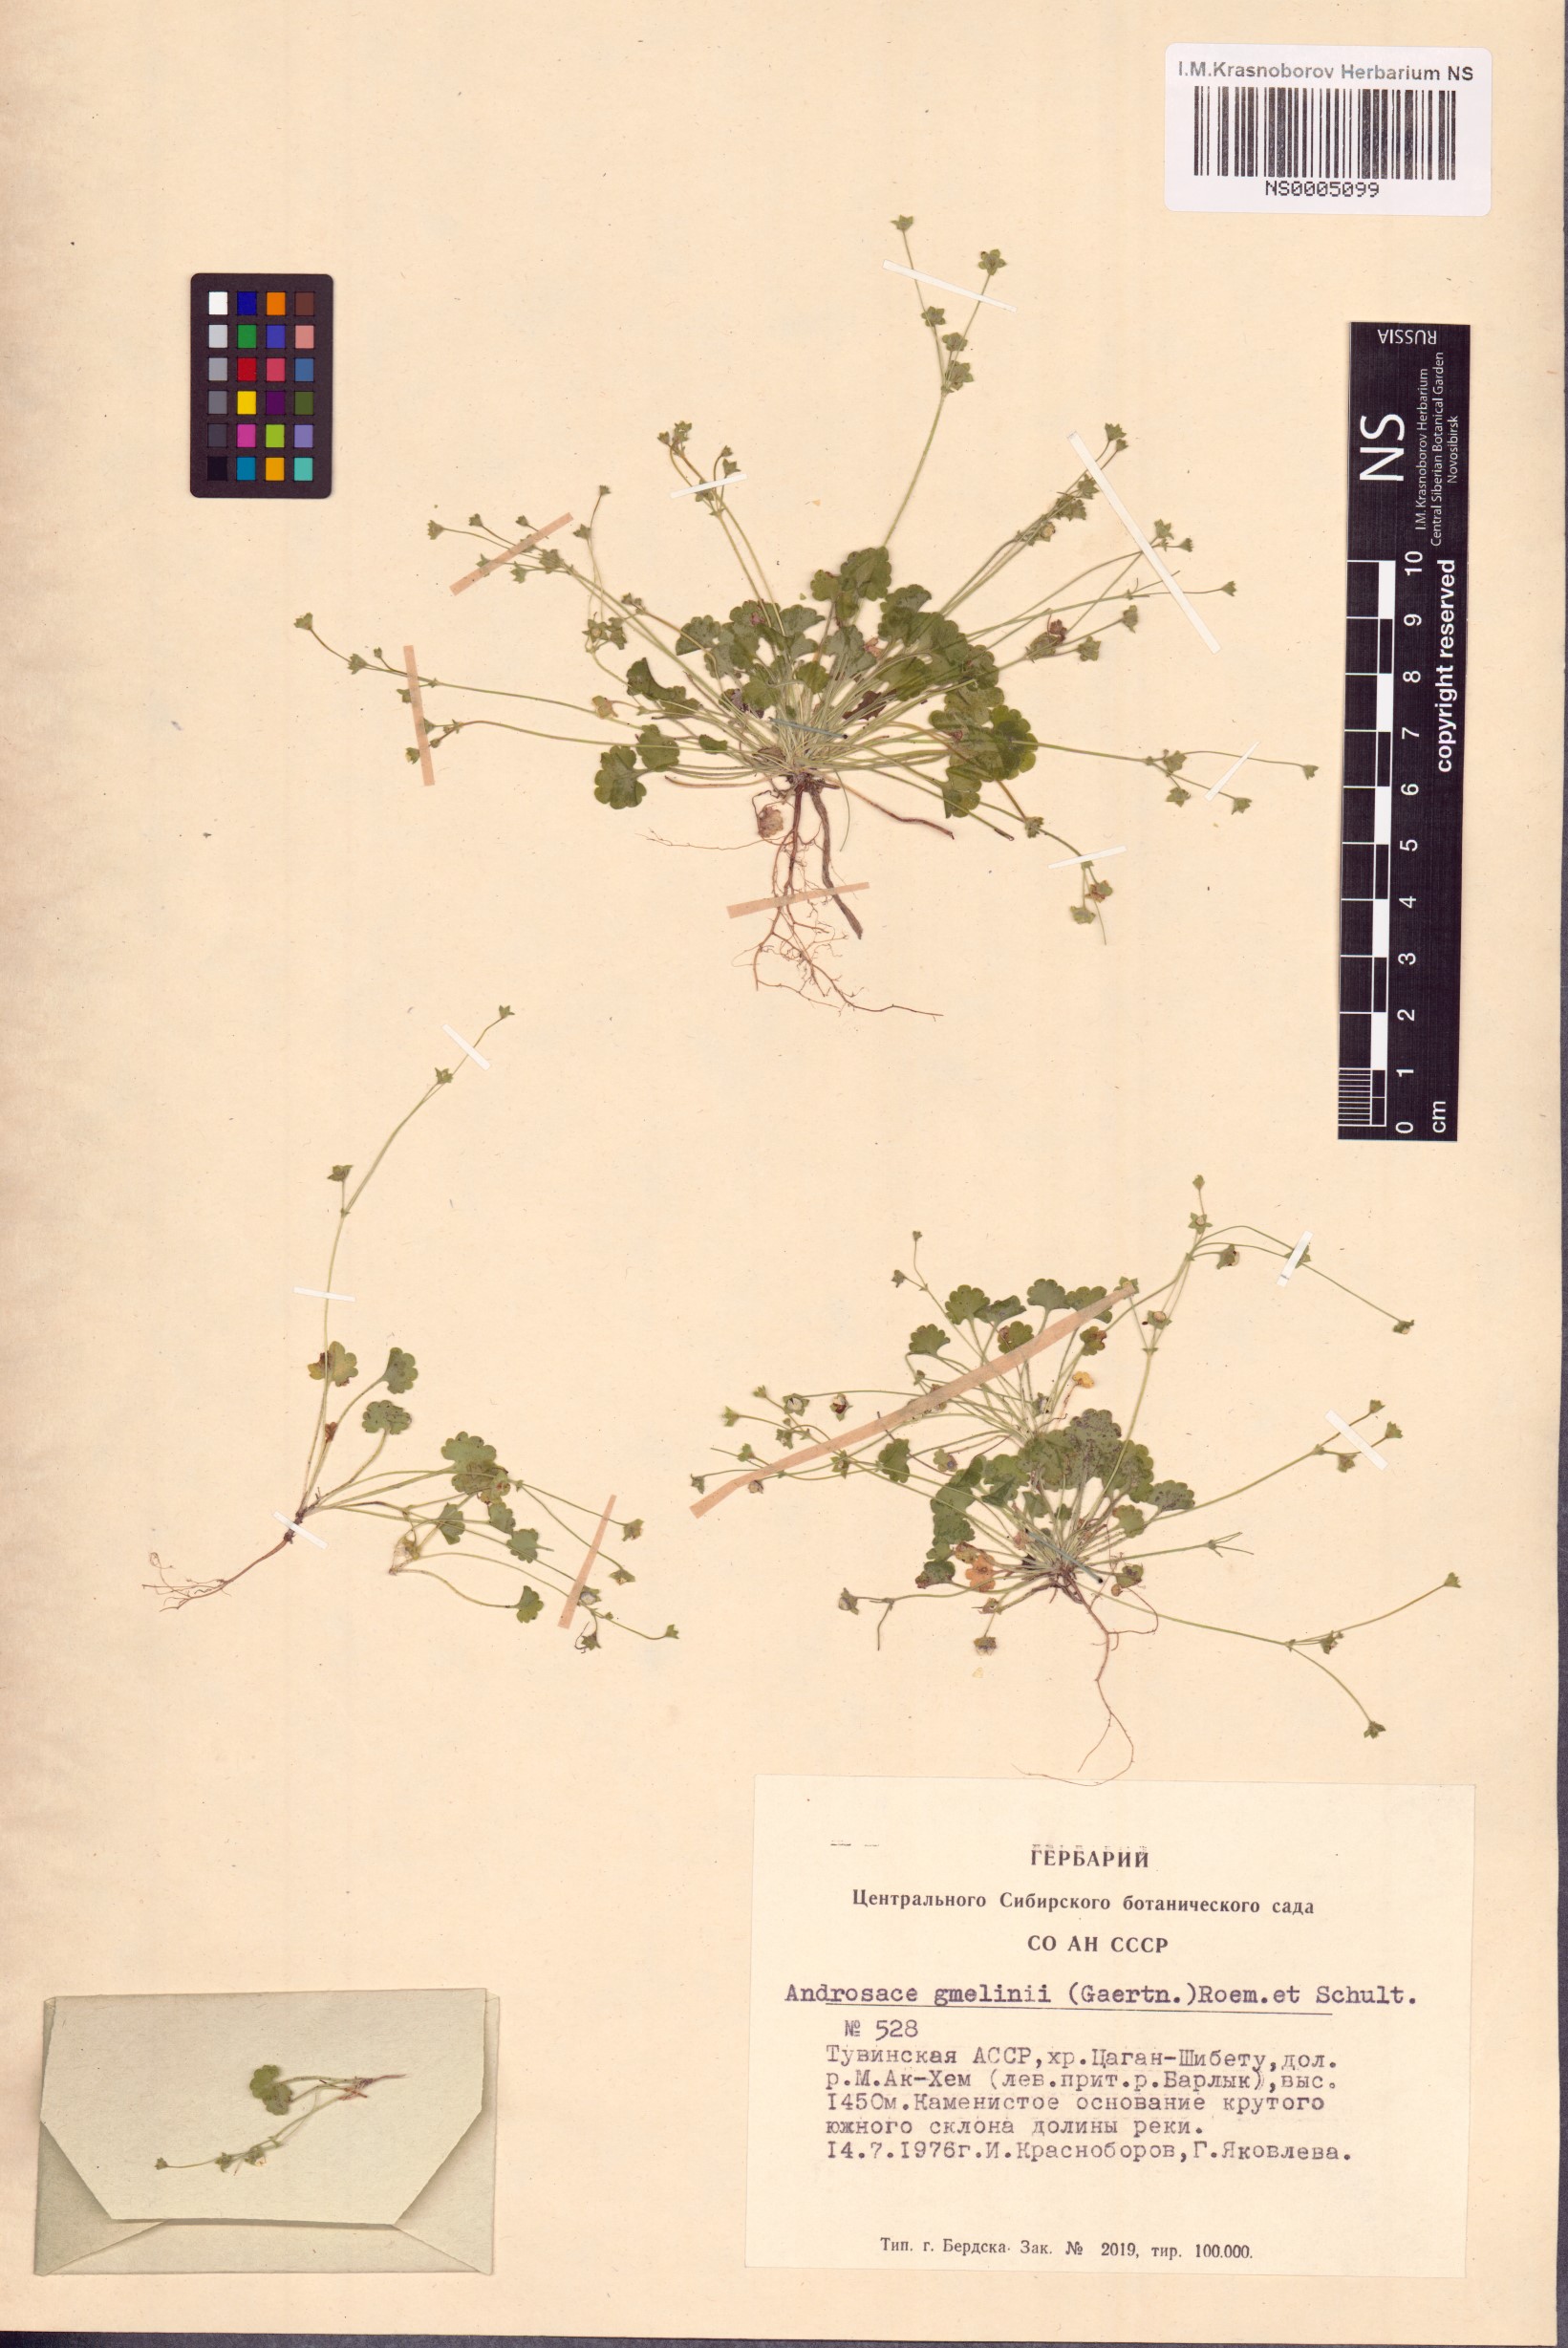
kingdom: Plantae
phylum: Tracheophyta
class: Magnoliopsida
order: Ericales
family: Primulaceae
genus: Androsace
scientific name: Androsace gmelinii
